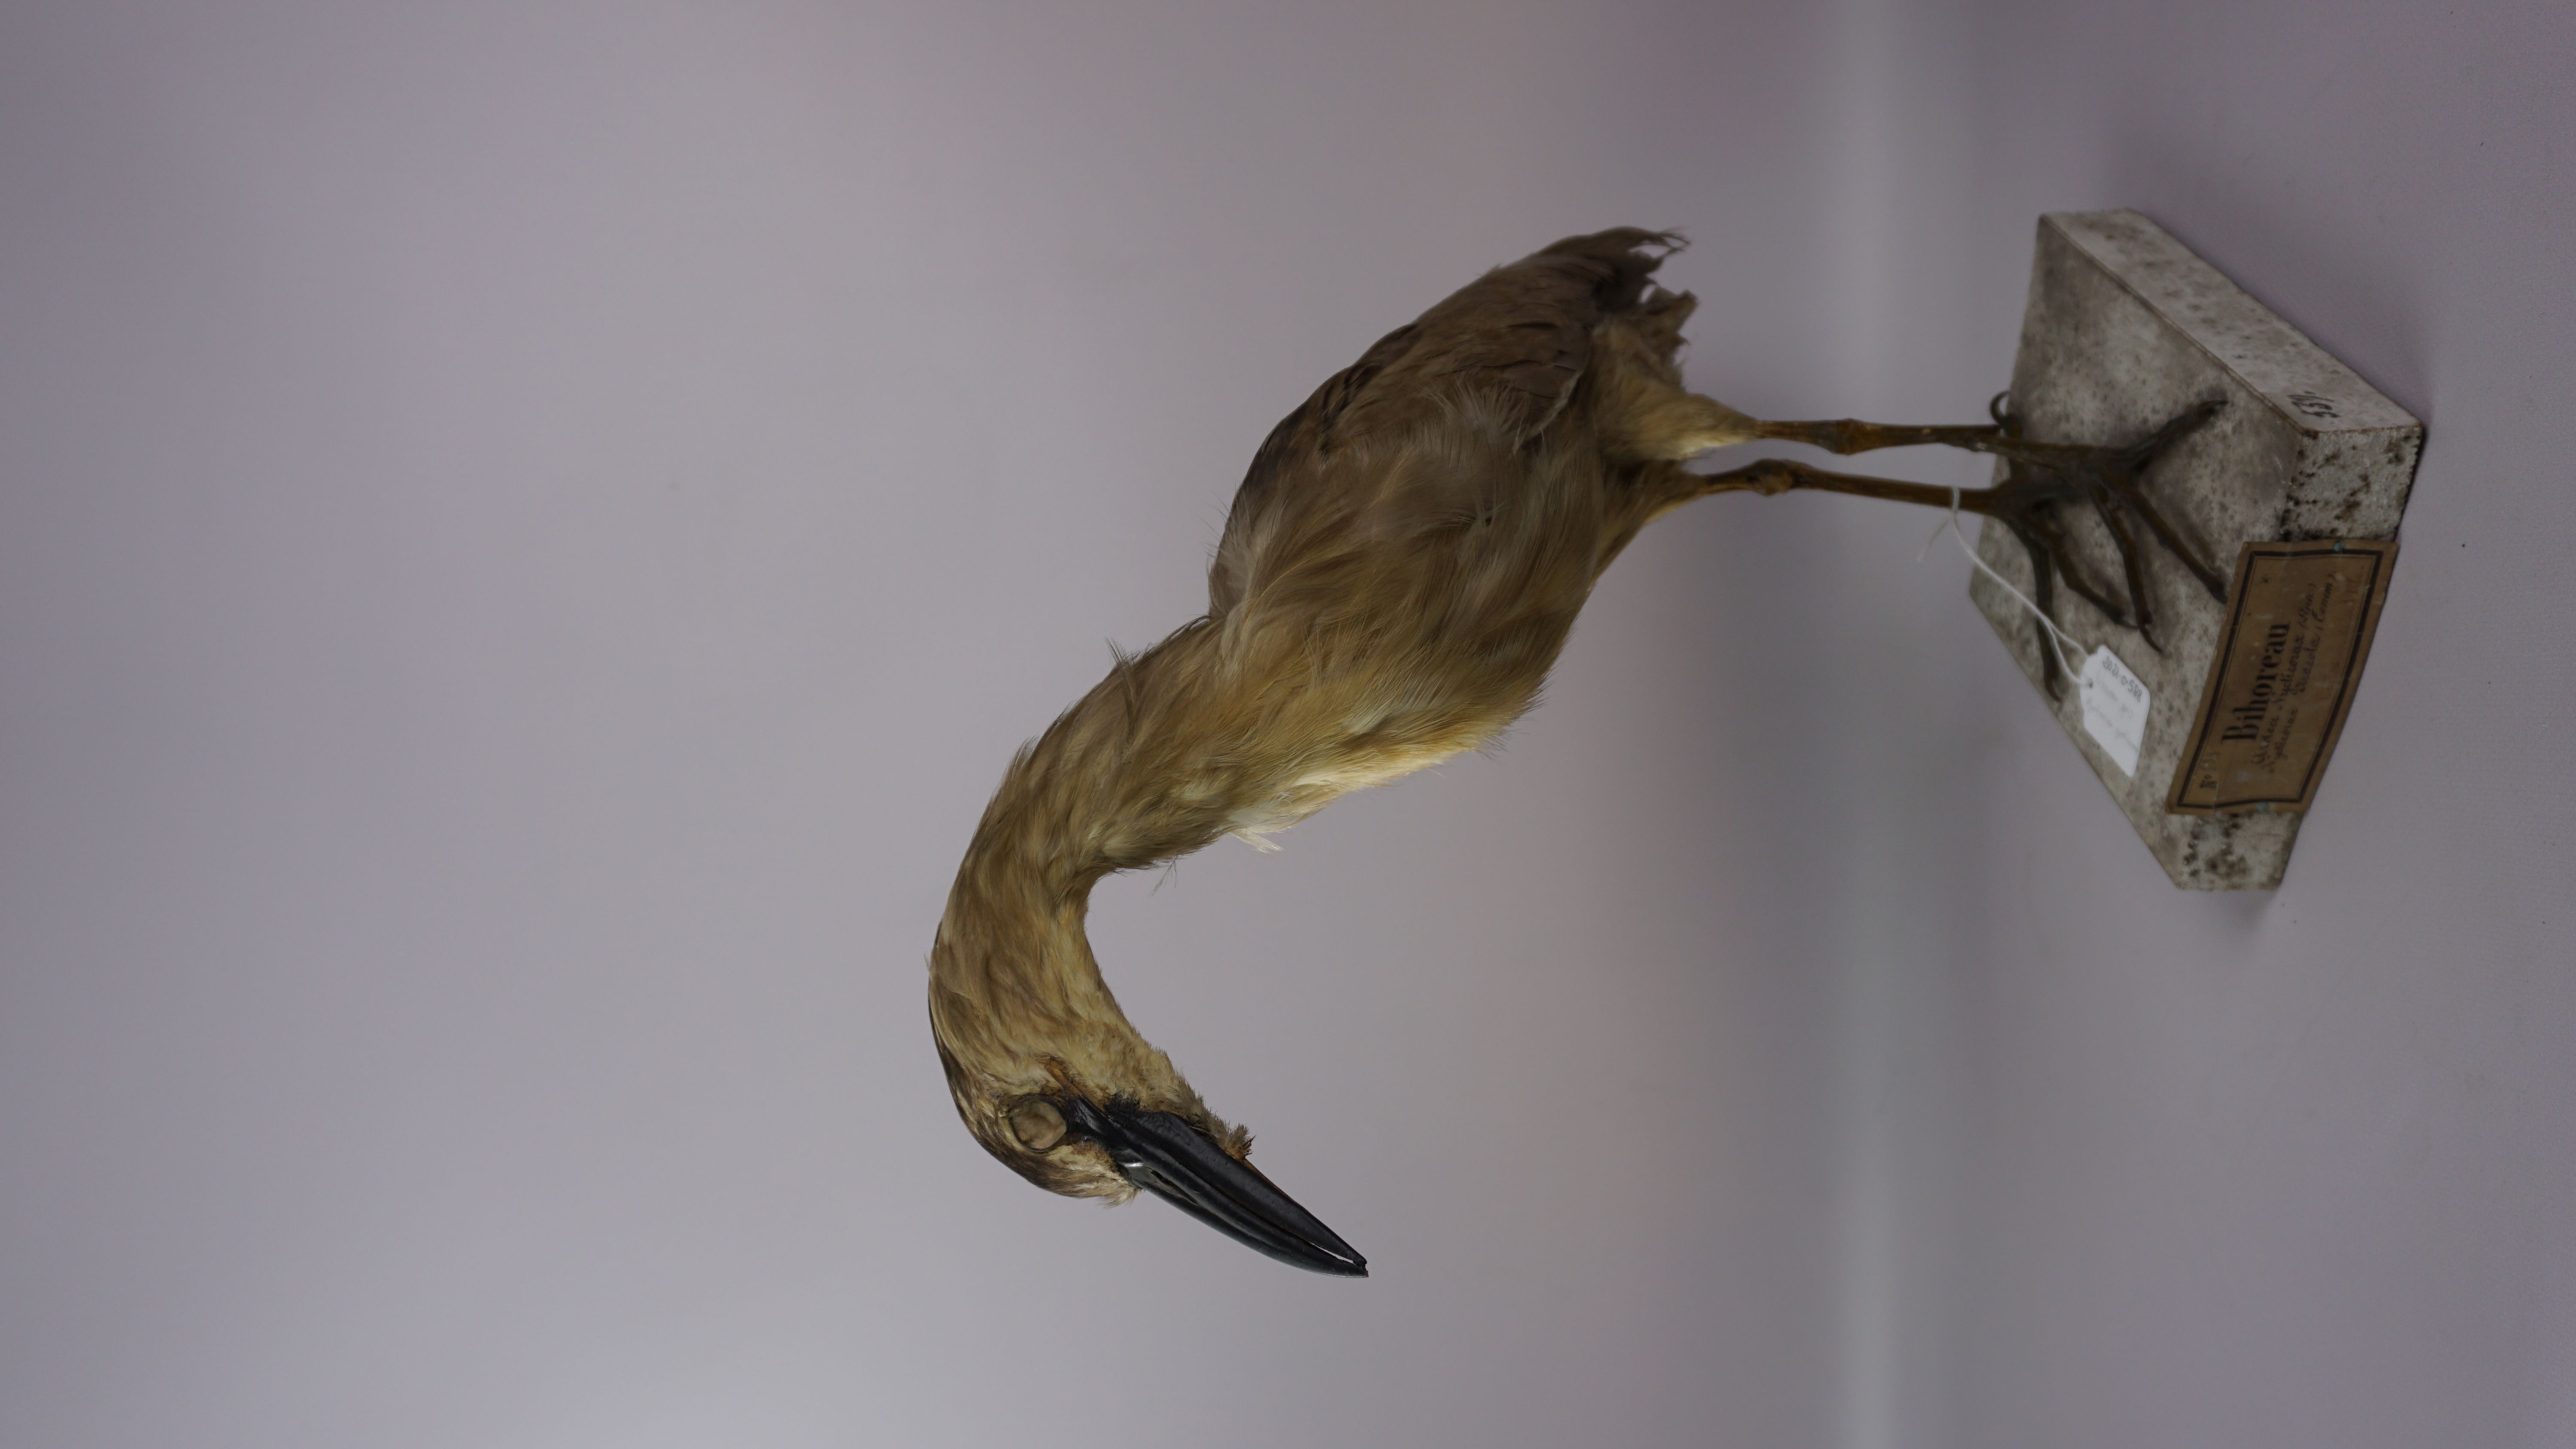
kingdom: Animalia
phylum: Chordata
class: Aves
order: Pelecaniformes
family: Ardeidae
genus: Nycticorax
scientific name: Nycticorax nycticorax
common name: Black-crowned night heron
